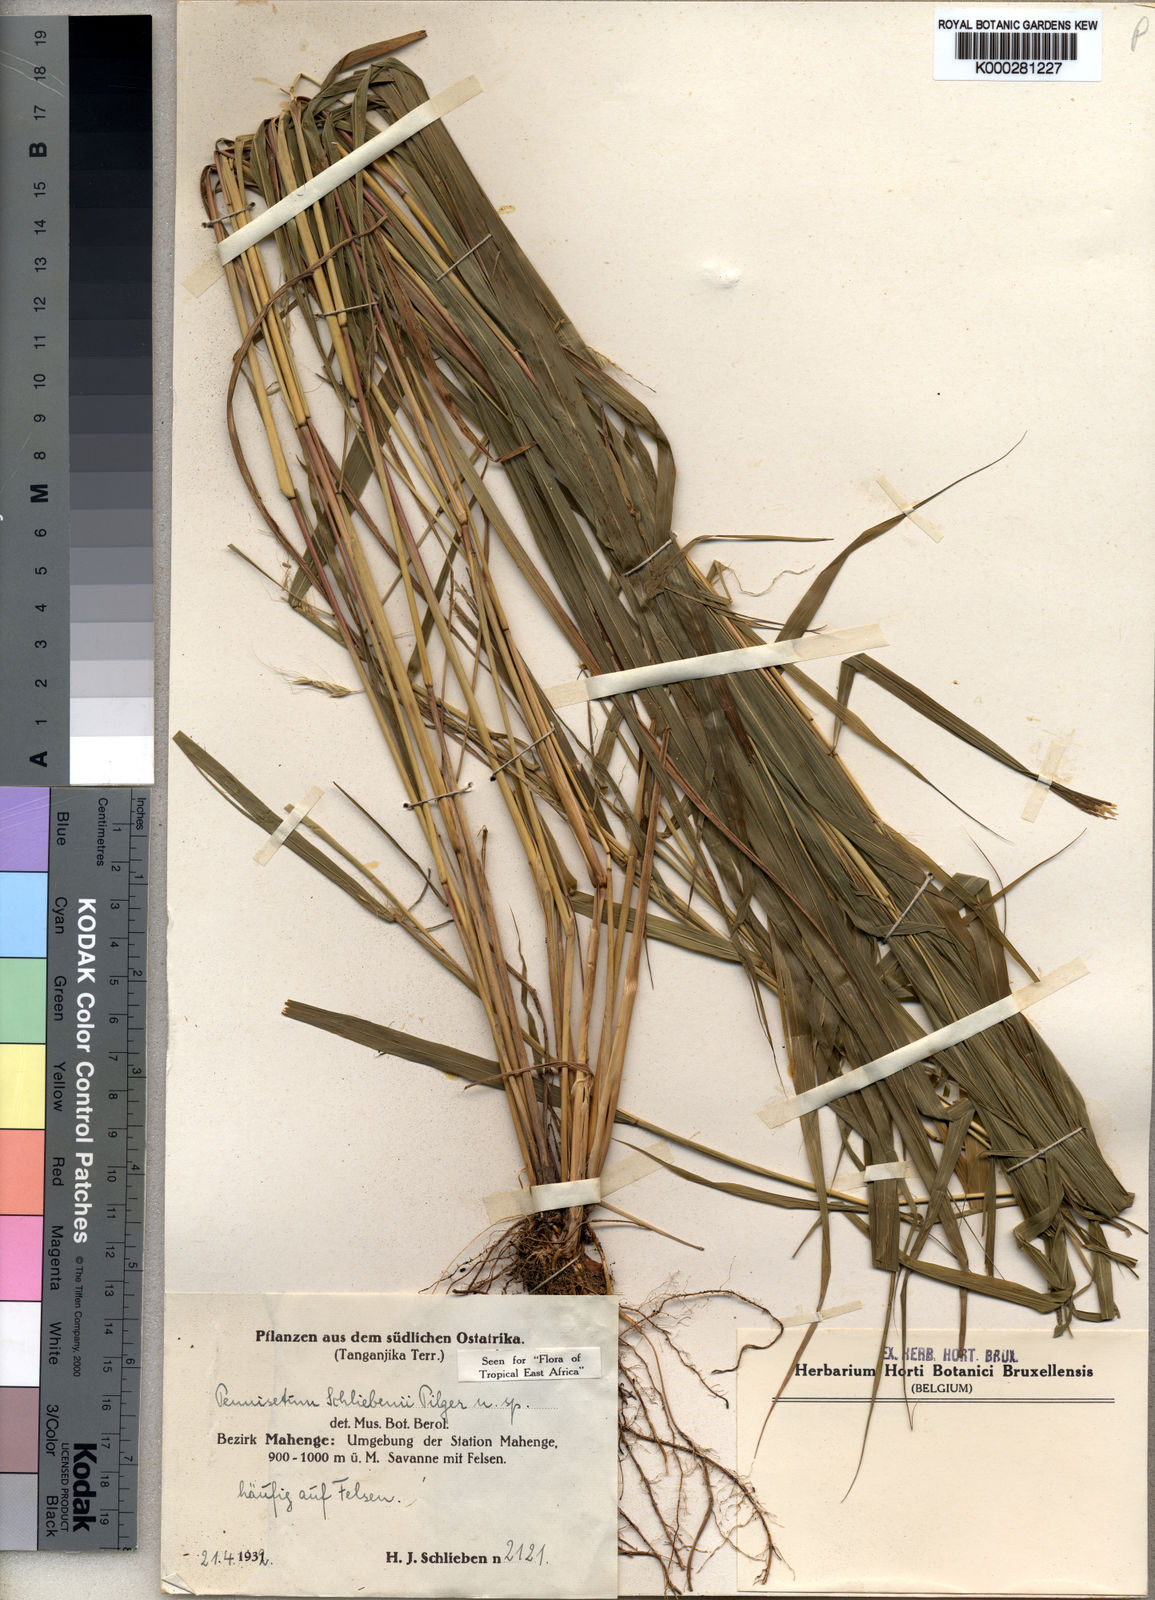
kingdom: Plantae
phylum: Tracheophyta
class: Liliopsida
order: Poales
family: Poaceae
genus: Cenchrus
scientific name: Cenchrus trisetus
